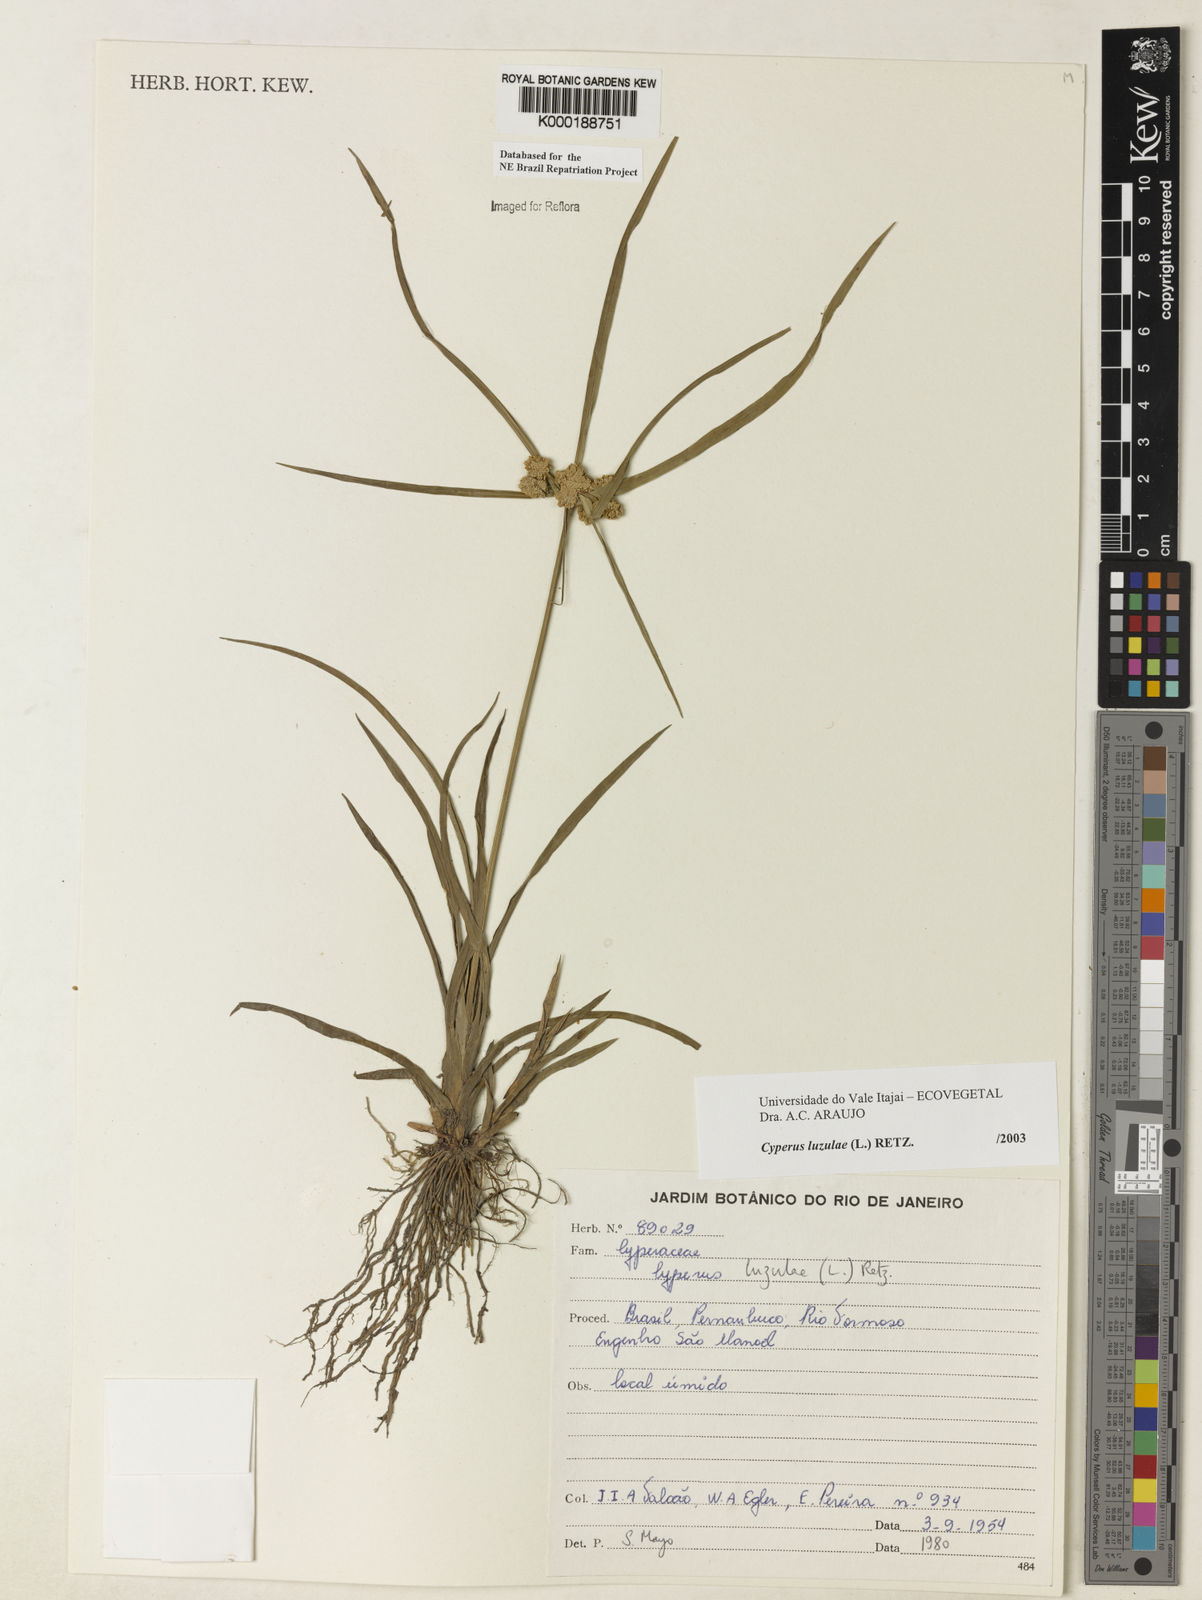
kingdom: Plantae
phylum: Tracheophyta
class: Liliopsida
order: Poales
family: Cyperaceae
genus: Cyperus
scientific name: Cyperus luzulae
